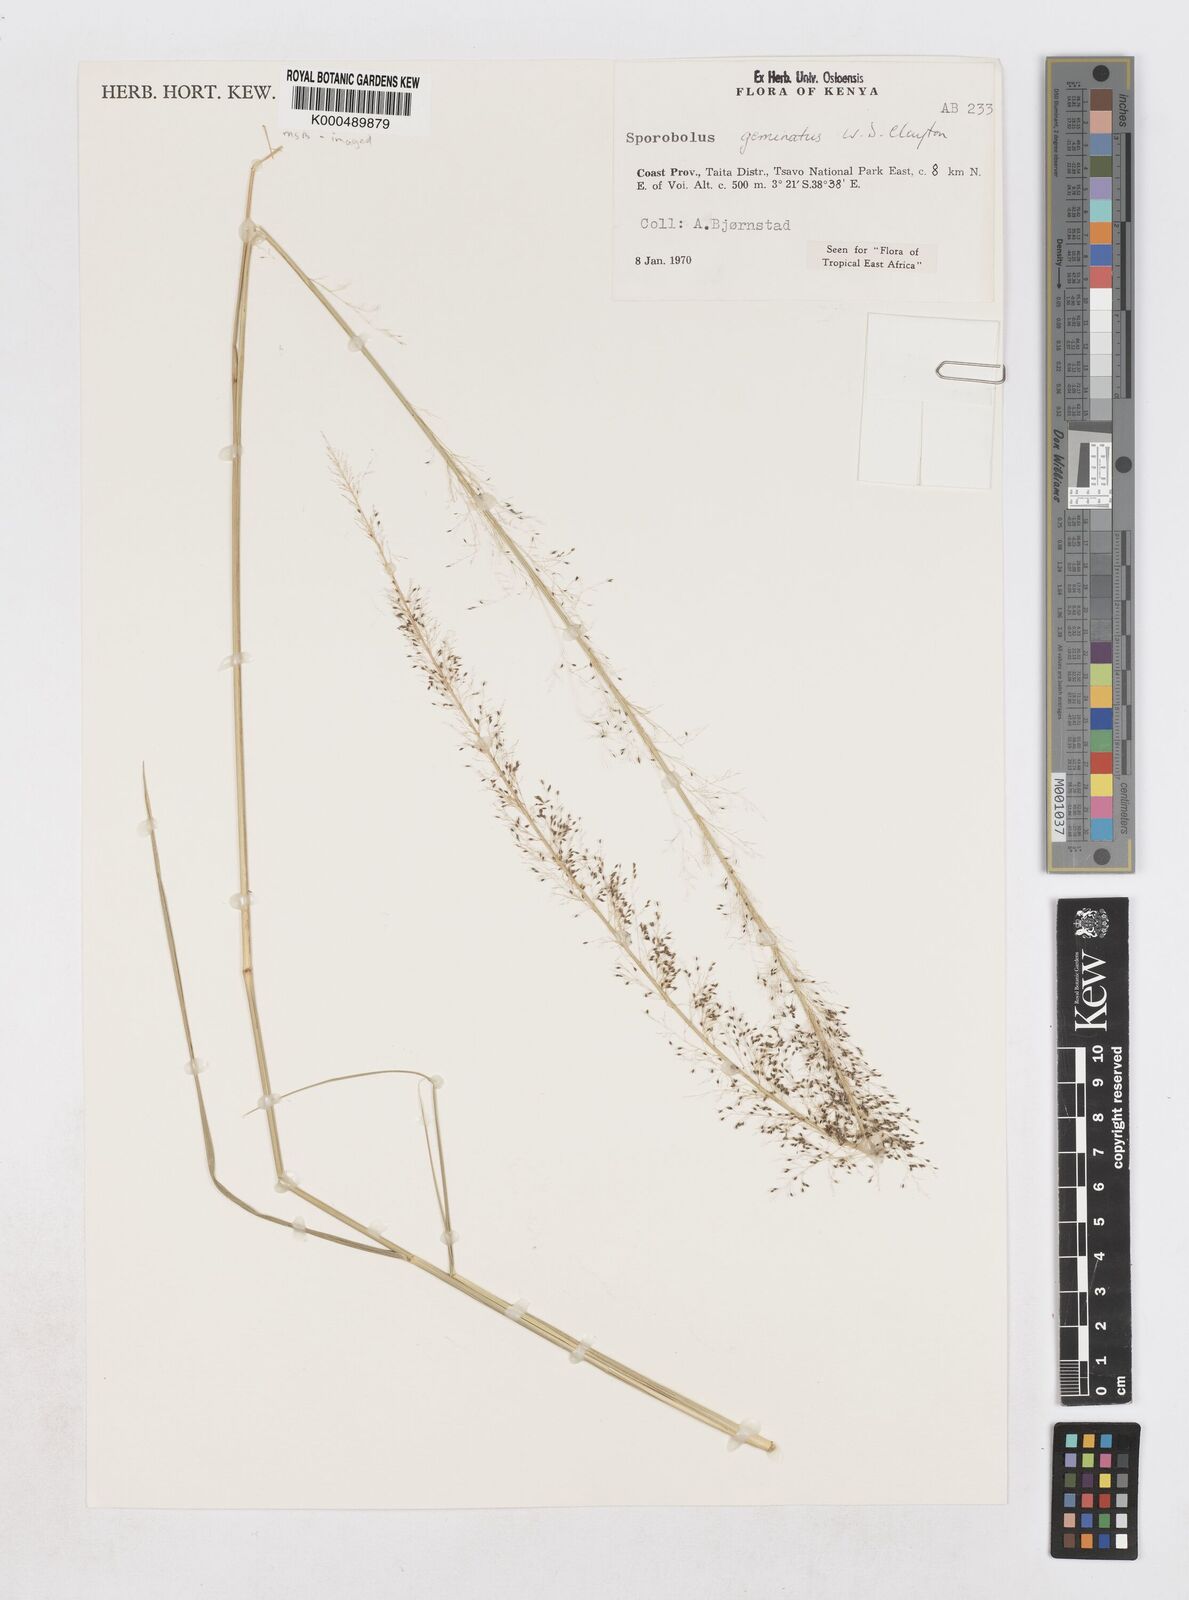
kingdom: Plantae
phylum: Tracheophyta
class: Liliopsida
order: Poales
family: Poaceae
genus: Sporobolus
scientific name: Sporobolus geminatus
